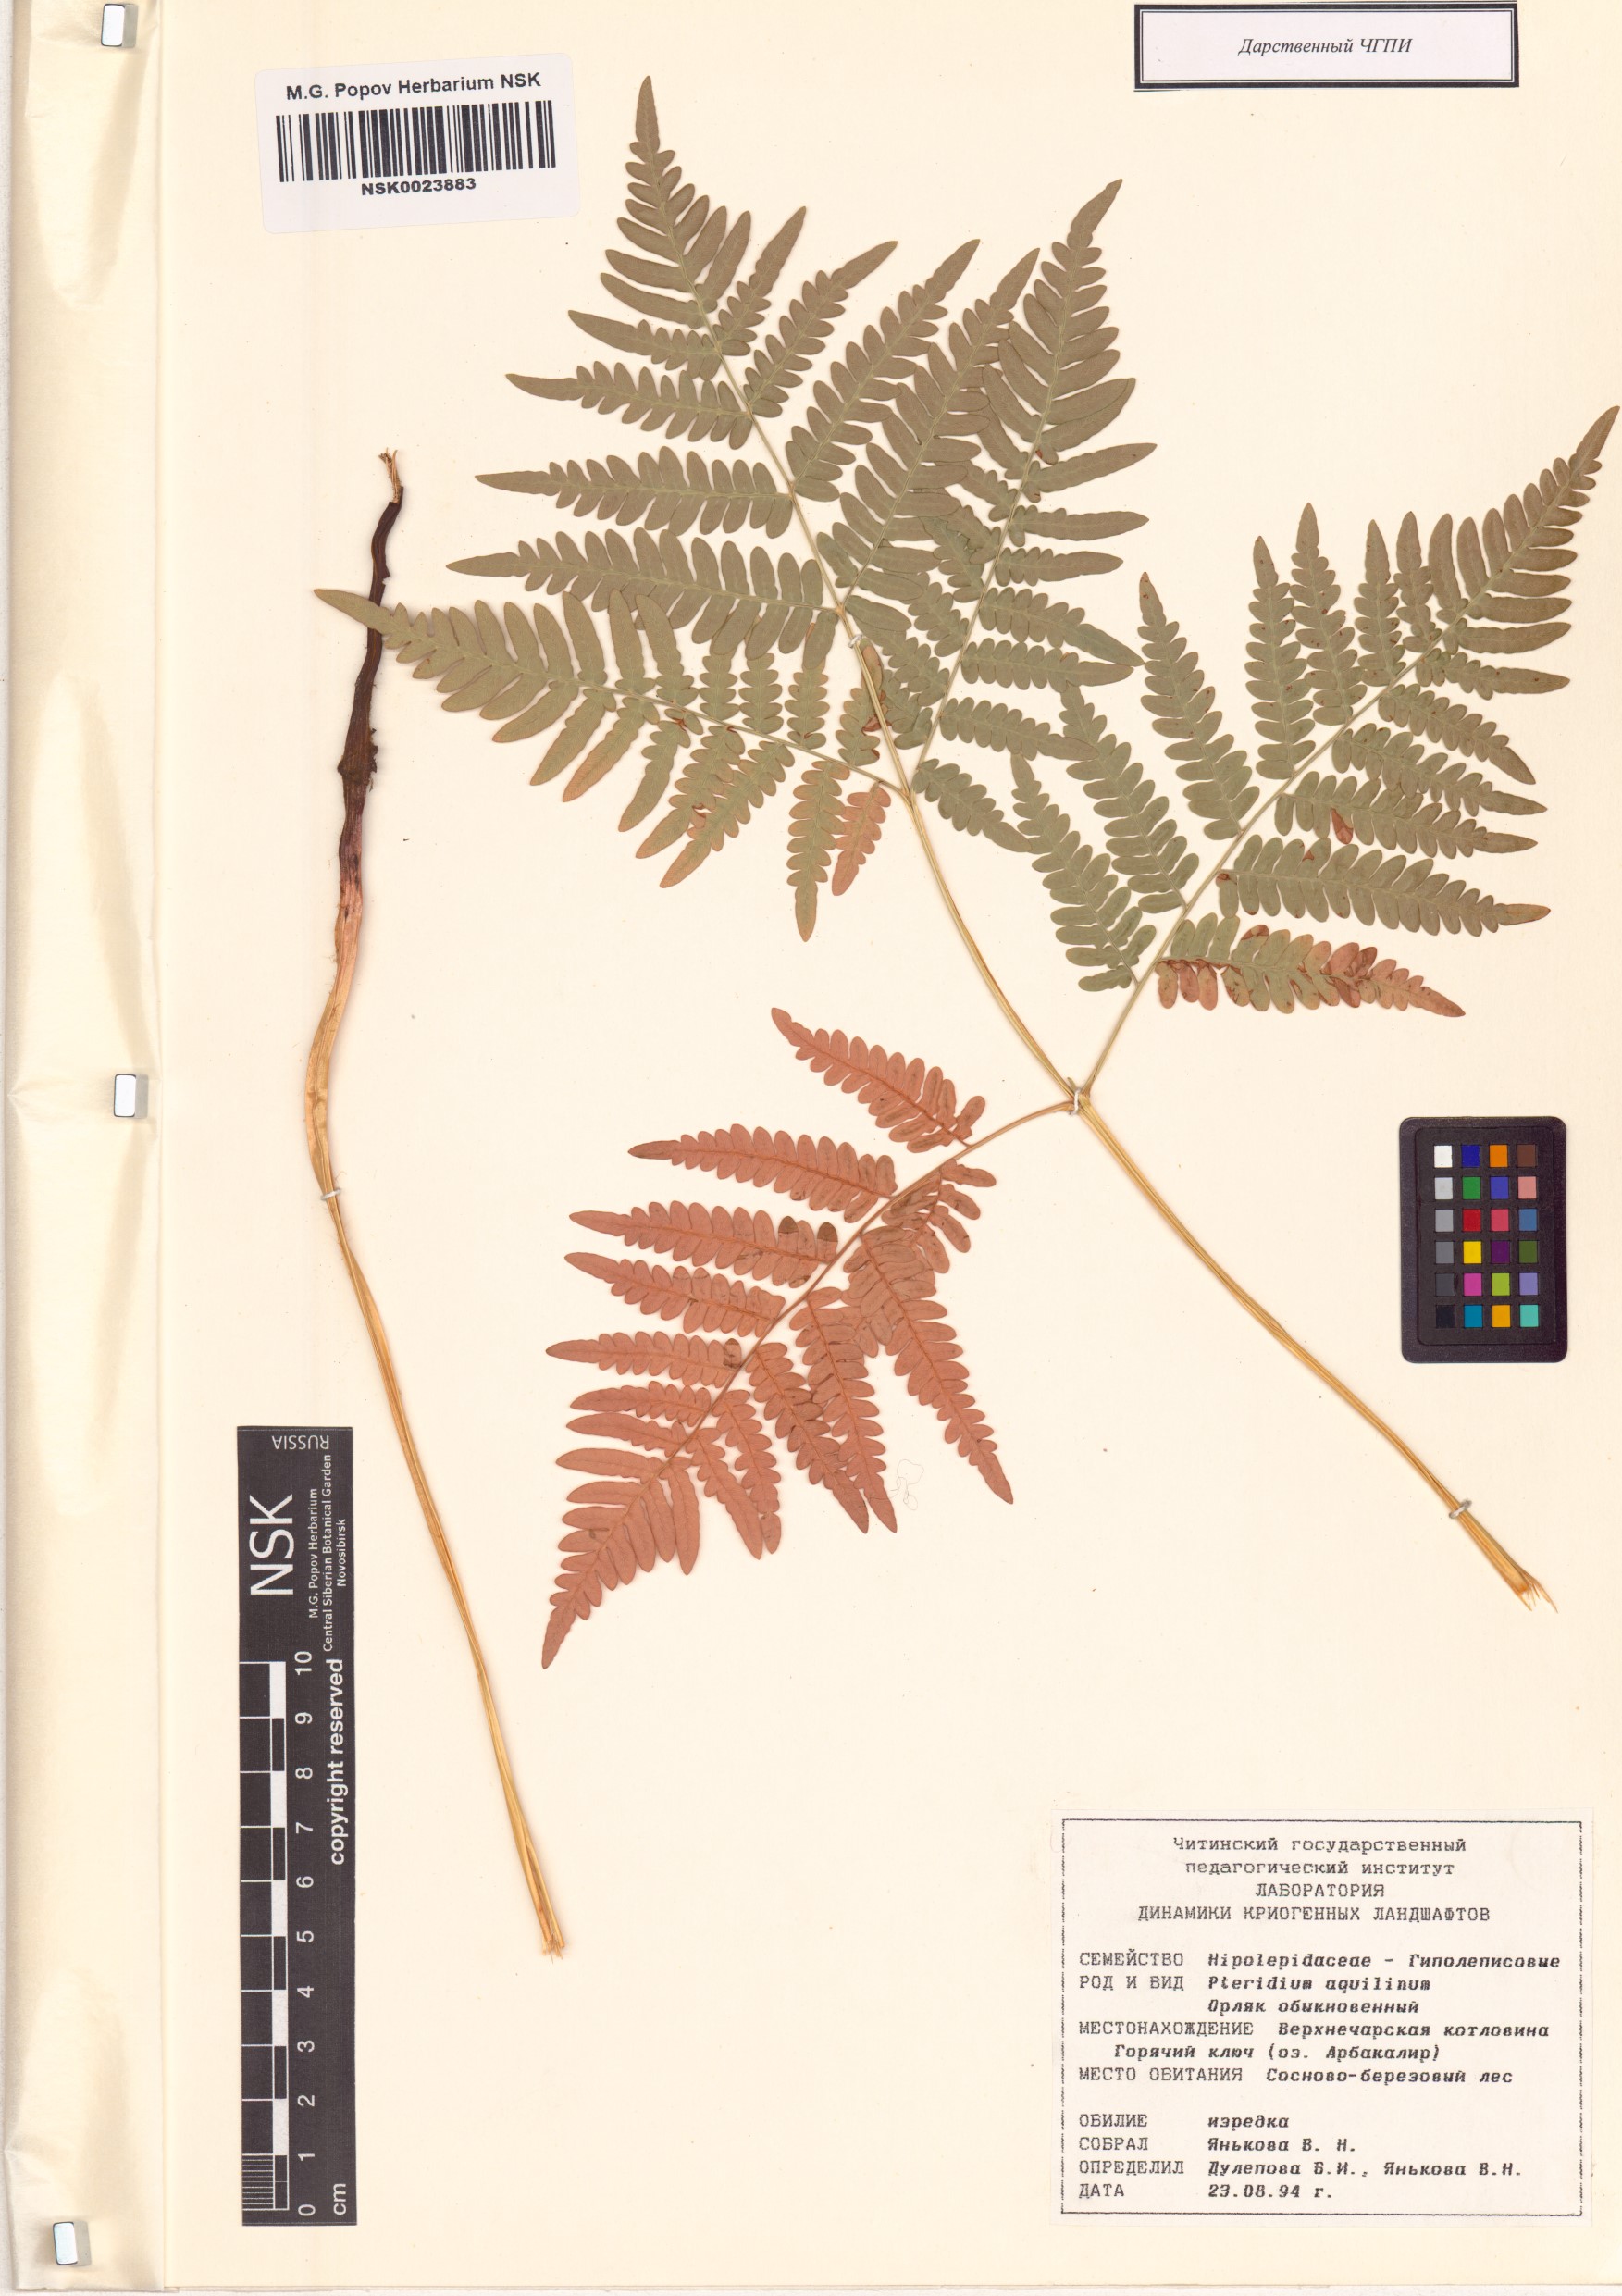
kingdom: Plantae
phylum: Tracheophyta
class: Polypodiopsida
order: Polypodiales
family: Dennstaedtiaceae
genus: Pteridium
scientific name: Pteridium aquilinum
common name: Bracken
